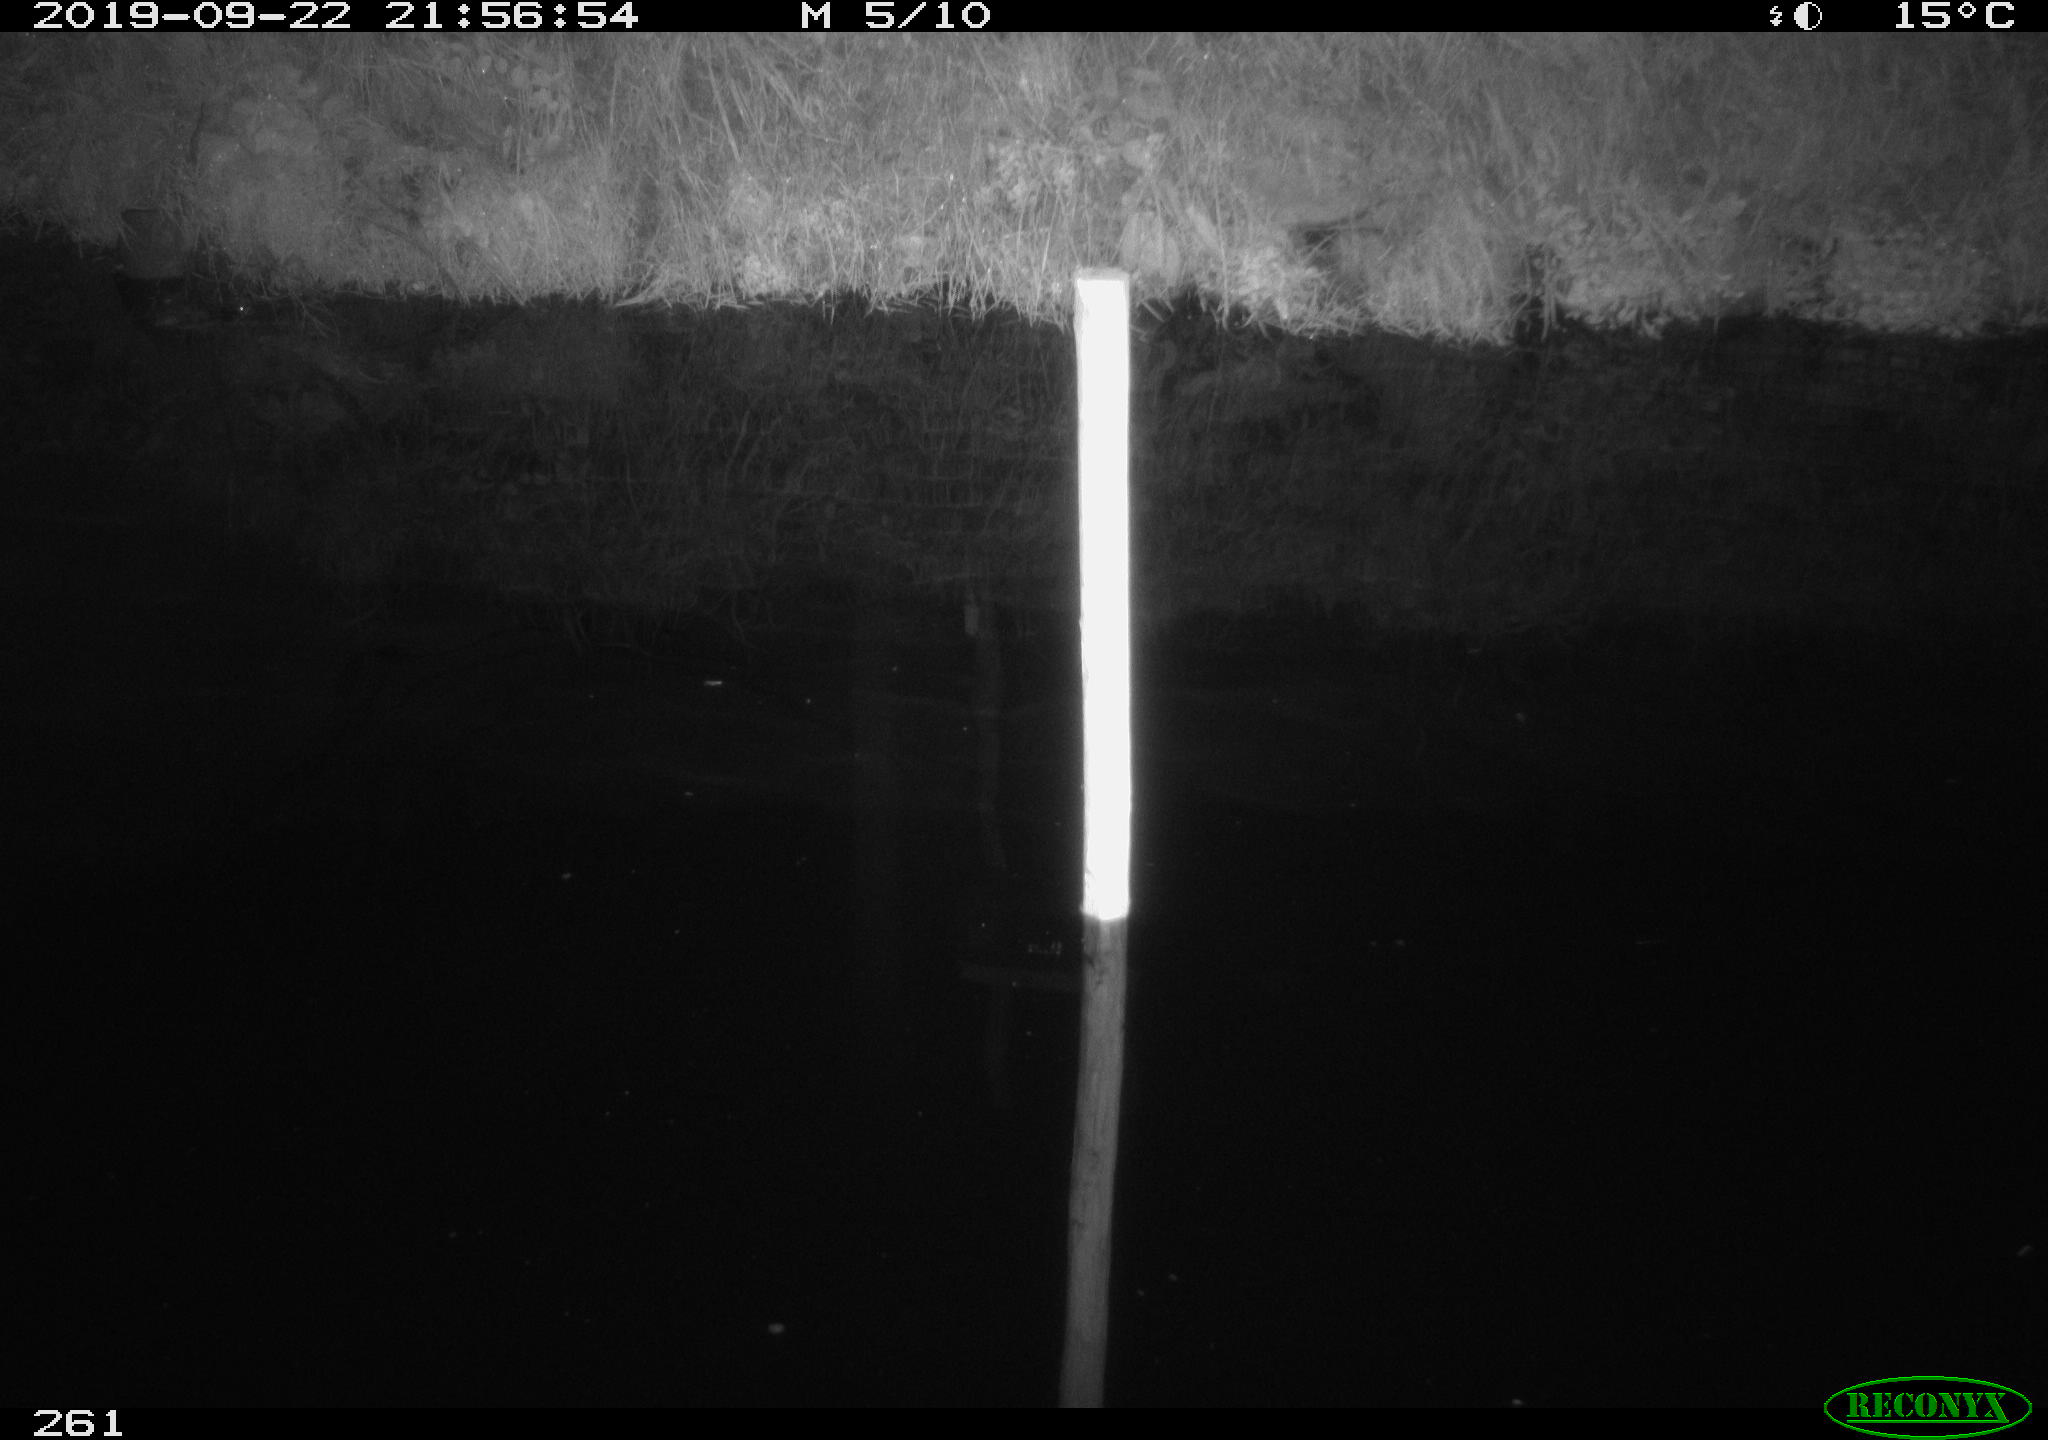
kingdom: Animalia
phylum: Chordata
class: Aves
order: Anseriformes
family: Anatidae
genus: Anas
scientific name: Anas platyrhynchos
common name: Mallard
